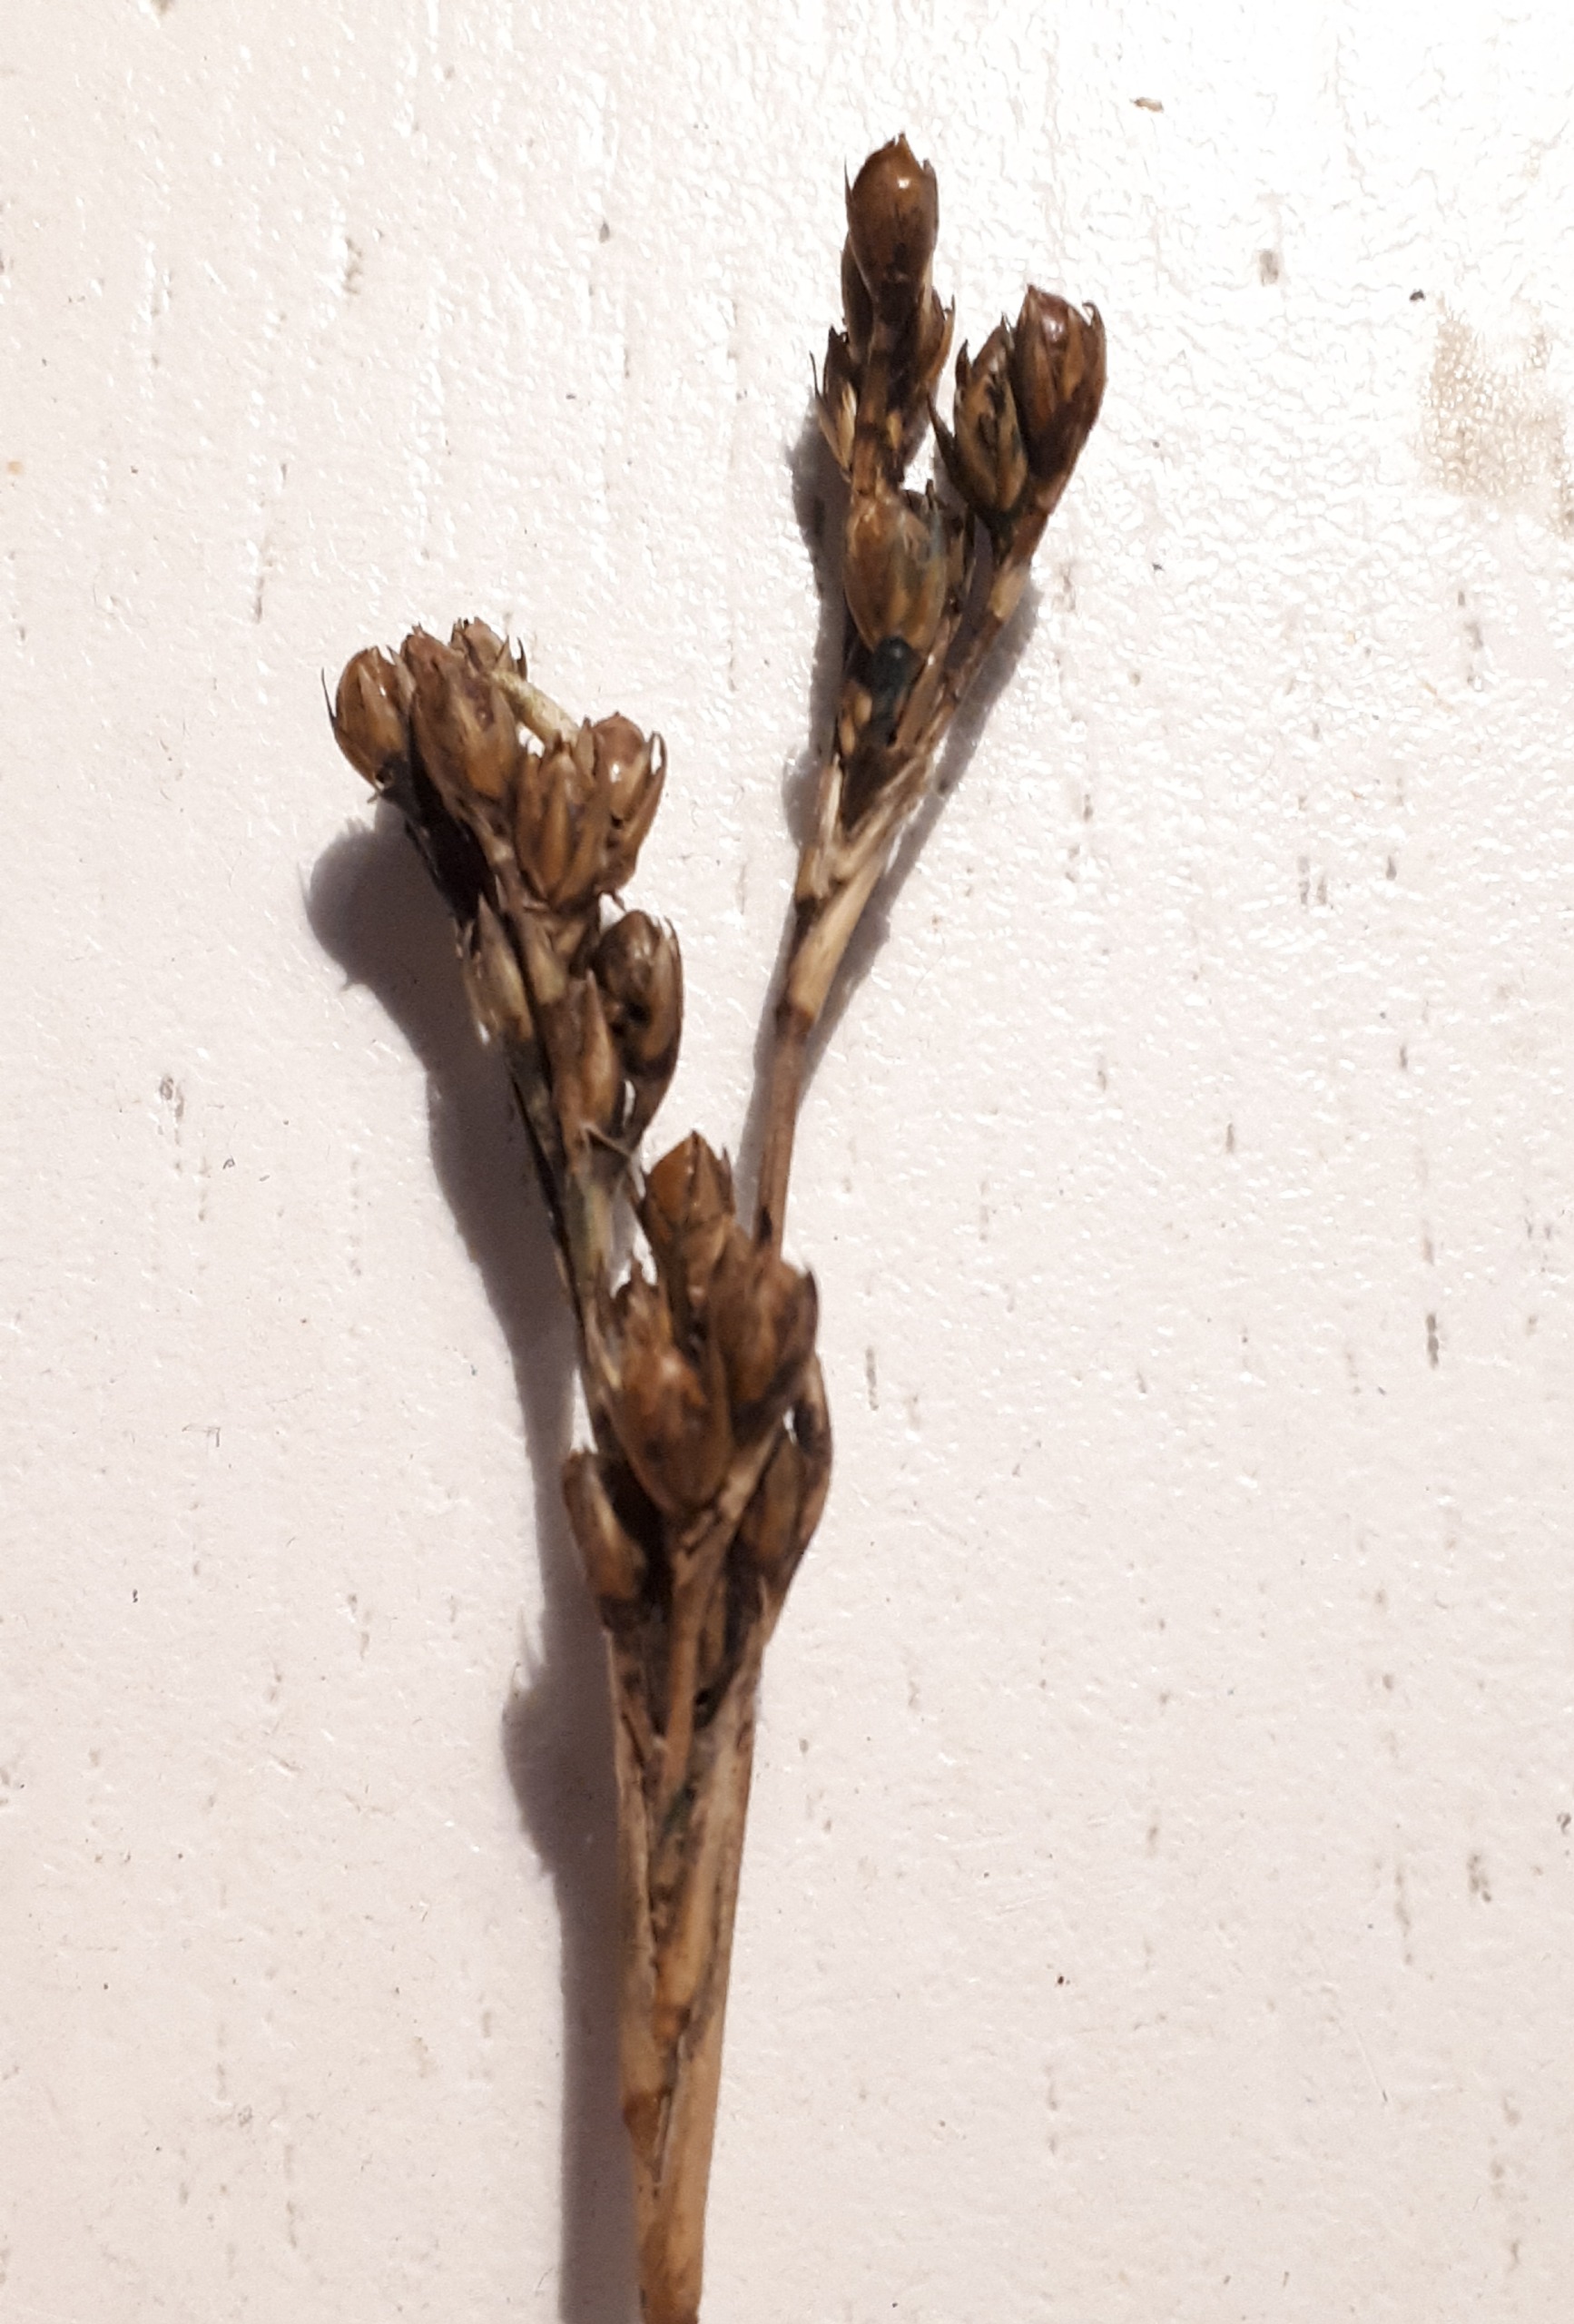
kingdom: Plantae
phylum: Tracheophyta
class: Liliopsida
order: Poales
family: Juncaceae
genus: Juncus
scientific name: Juncus squarrosus
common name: Børste-siv
